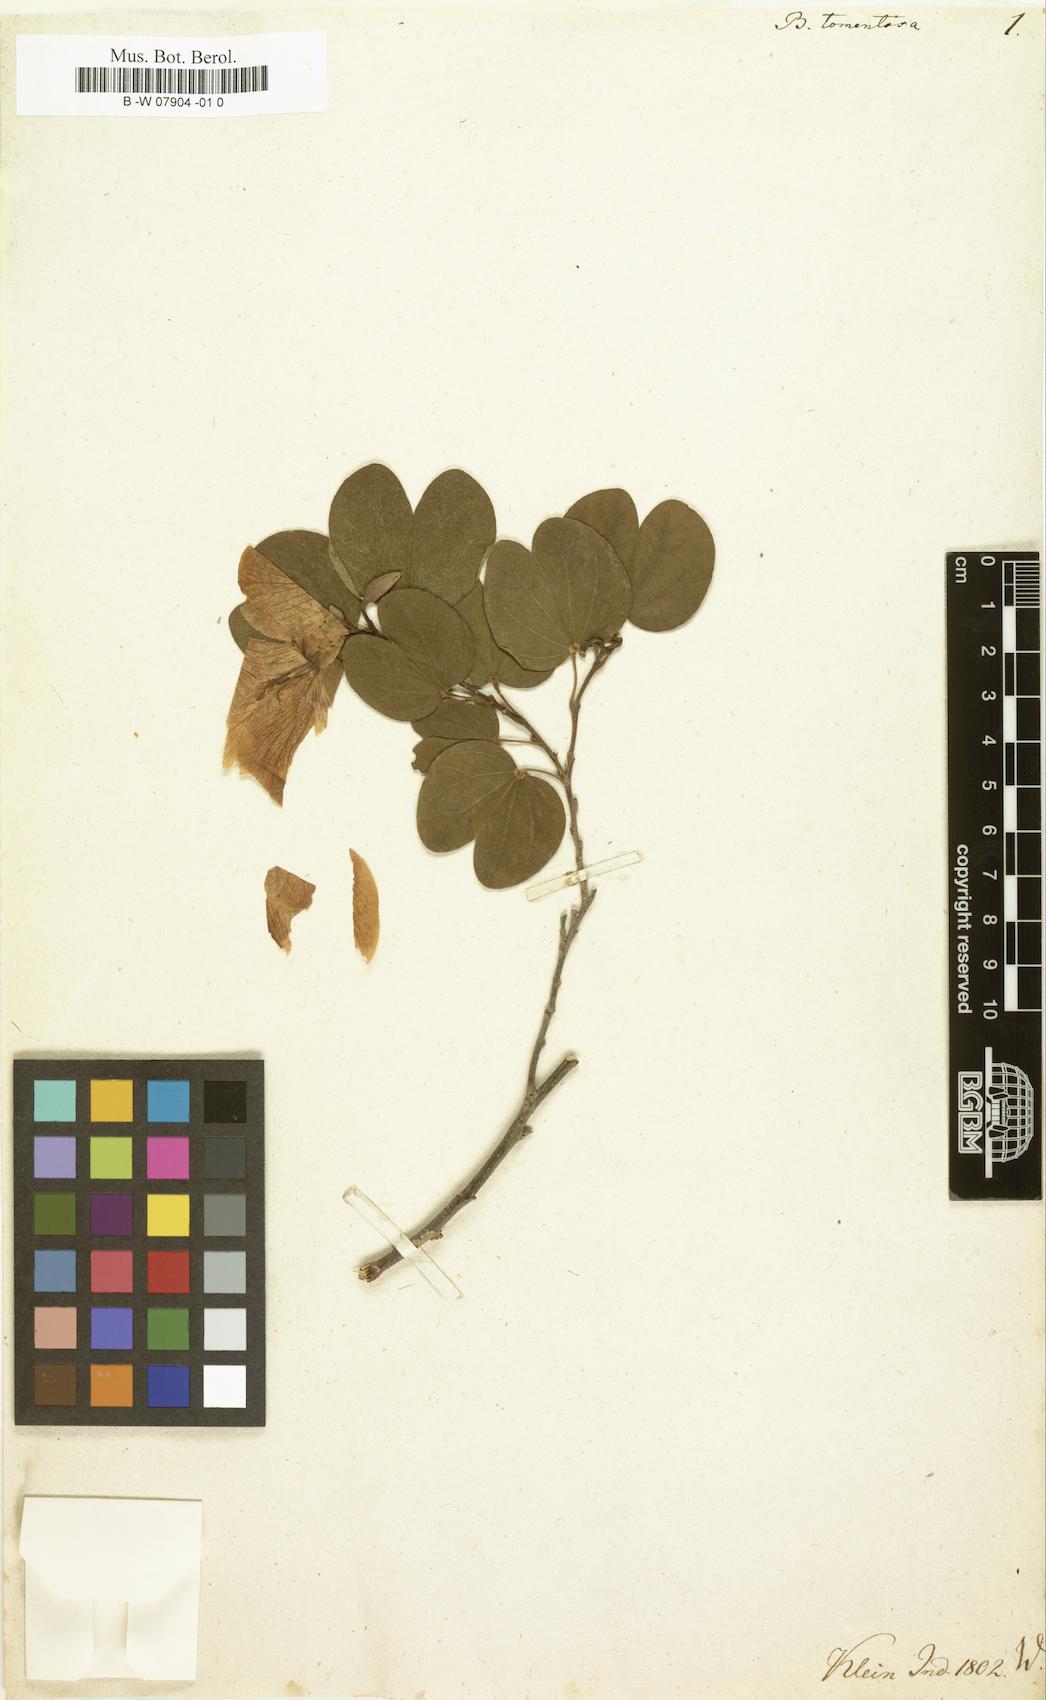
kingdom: Plantae
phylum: Tracheophyta
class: Magnoliopsida
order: Fabales
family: Fabaceae
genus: Bauhinia
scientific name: Bauhinia tomentosa
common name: Bell bauhinia
